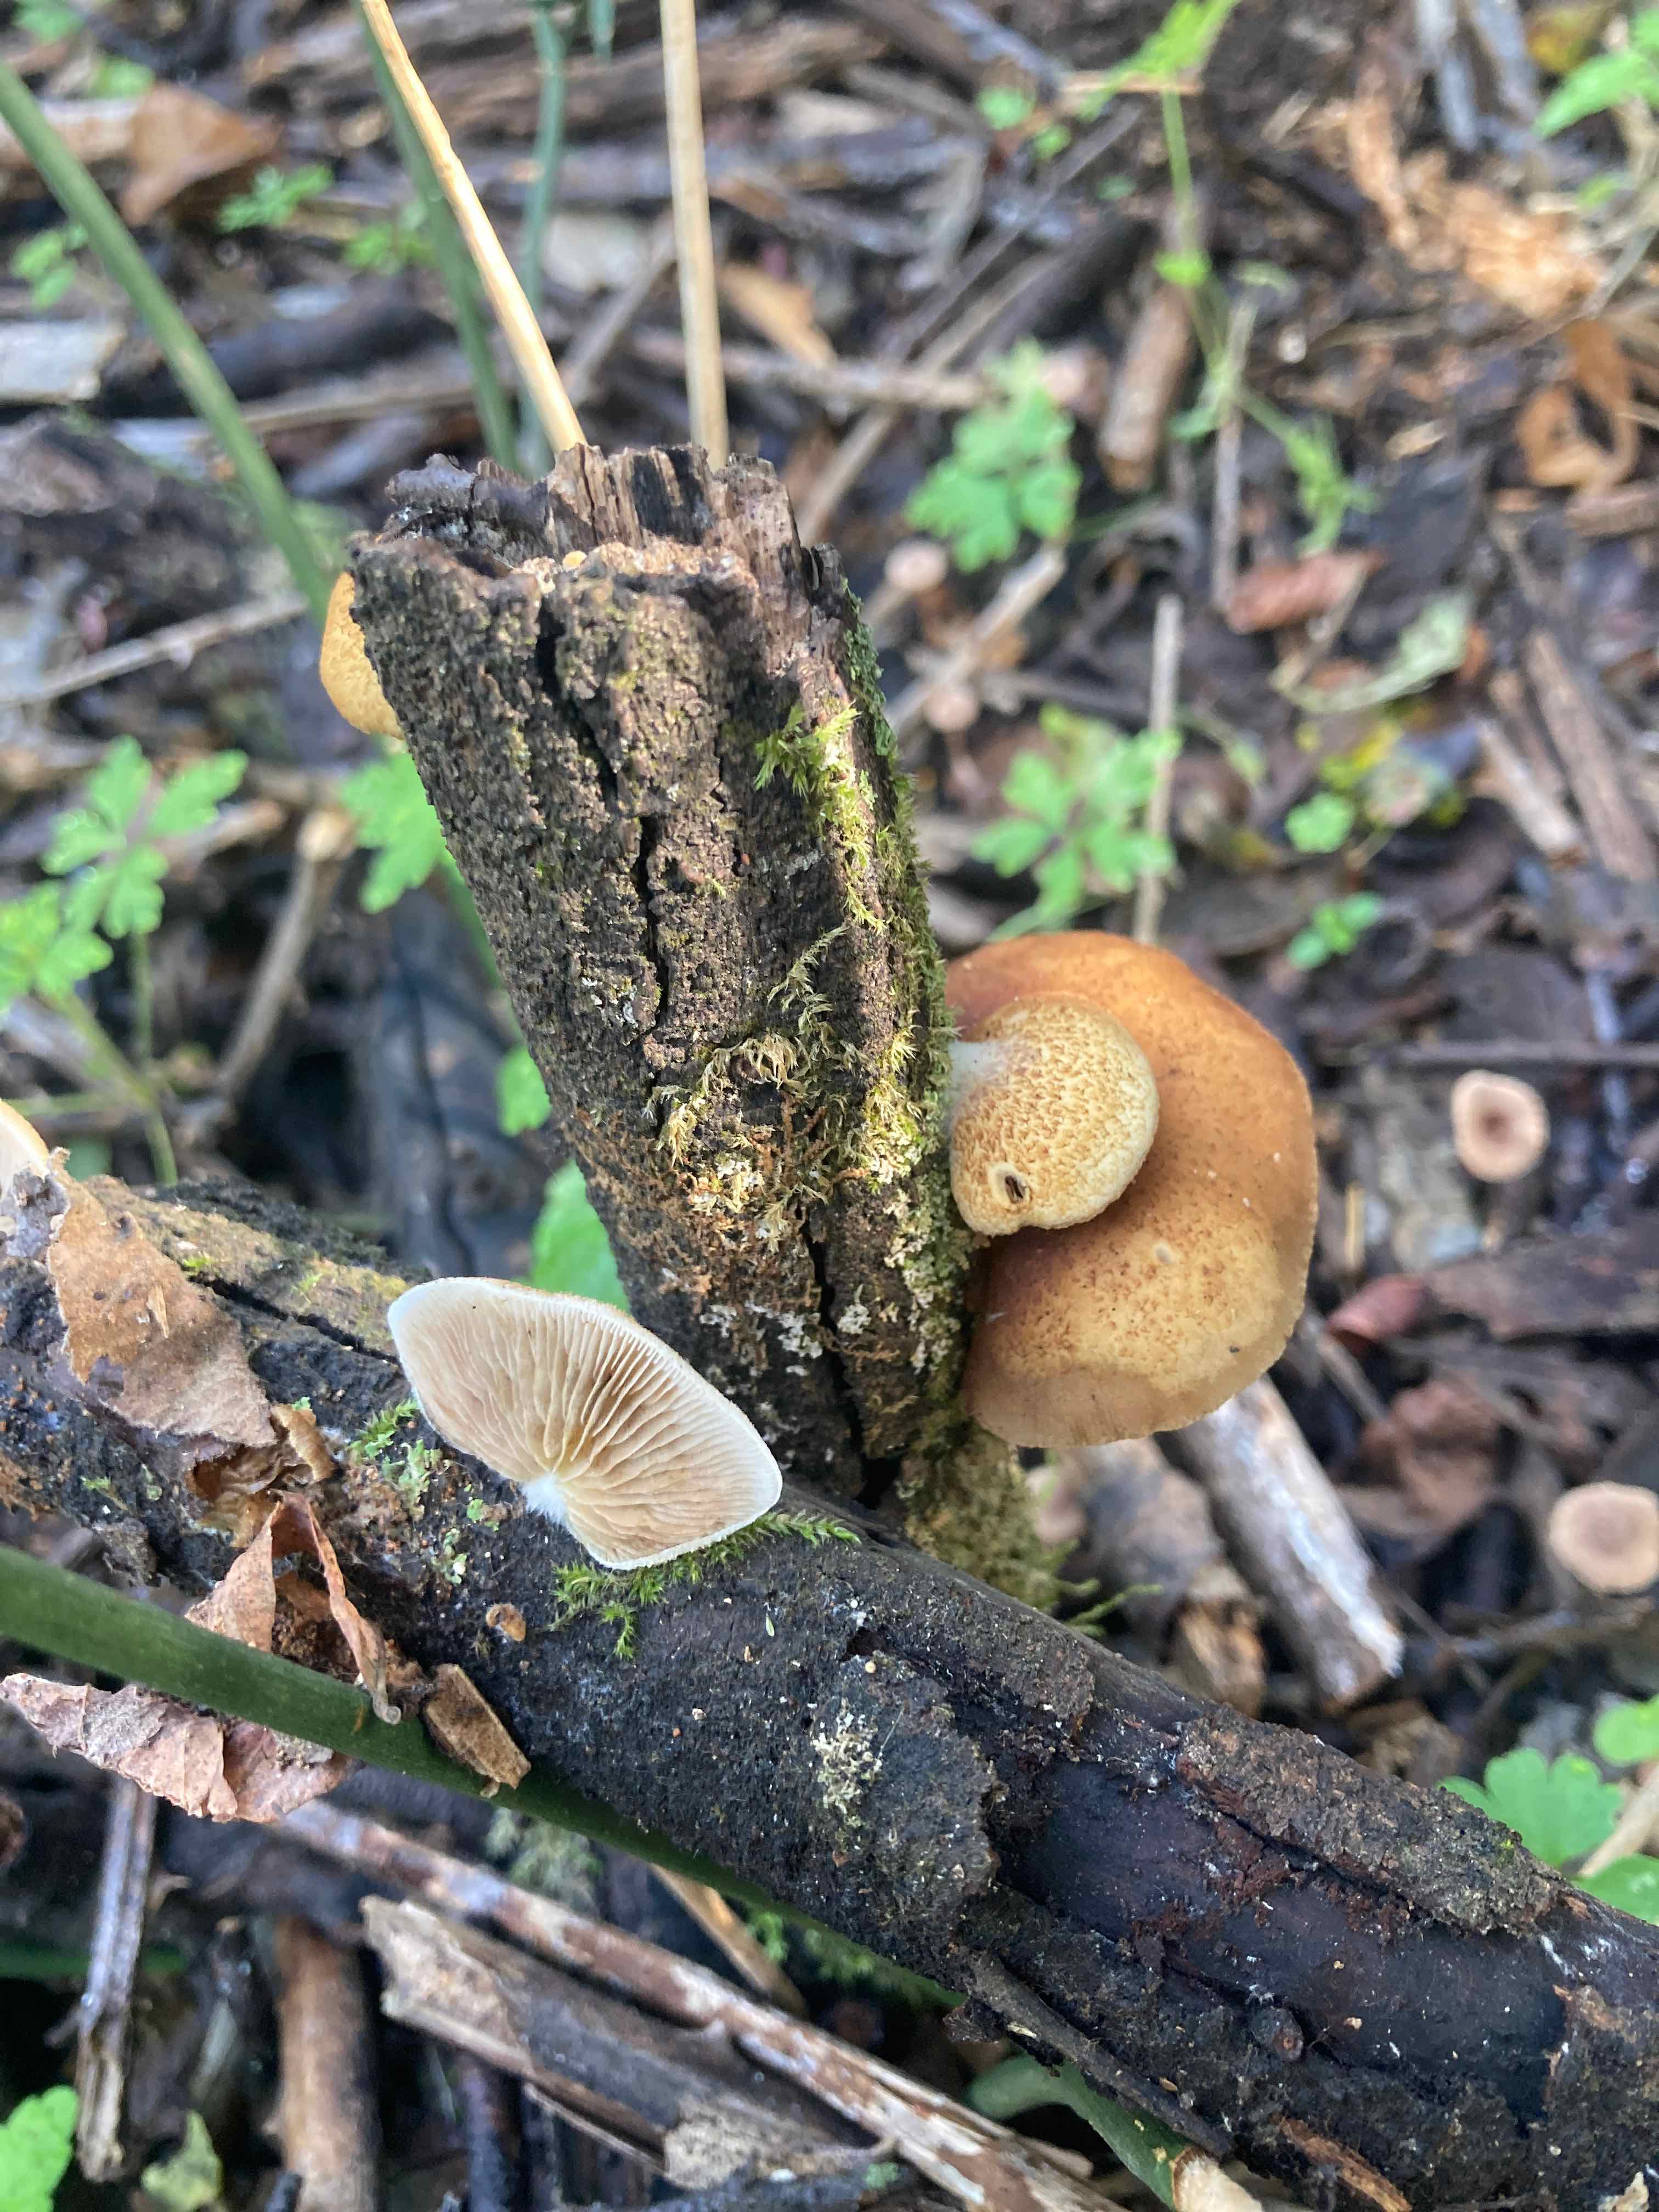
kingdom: Fungi
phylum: Basidiomycota
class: Agaricomycetes
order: Agaricales
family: Crepidotaceae
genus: Crepidotus
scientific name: Crepidotus calolepis
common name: småskællet muslingesvamp
